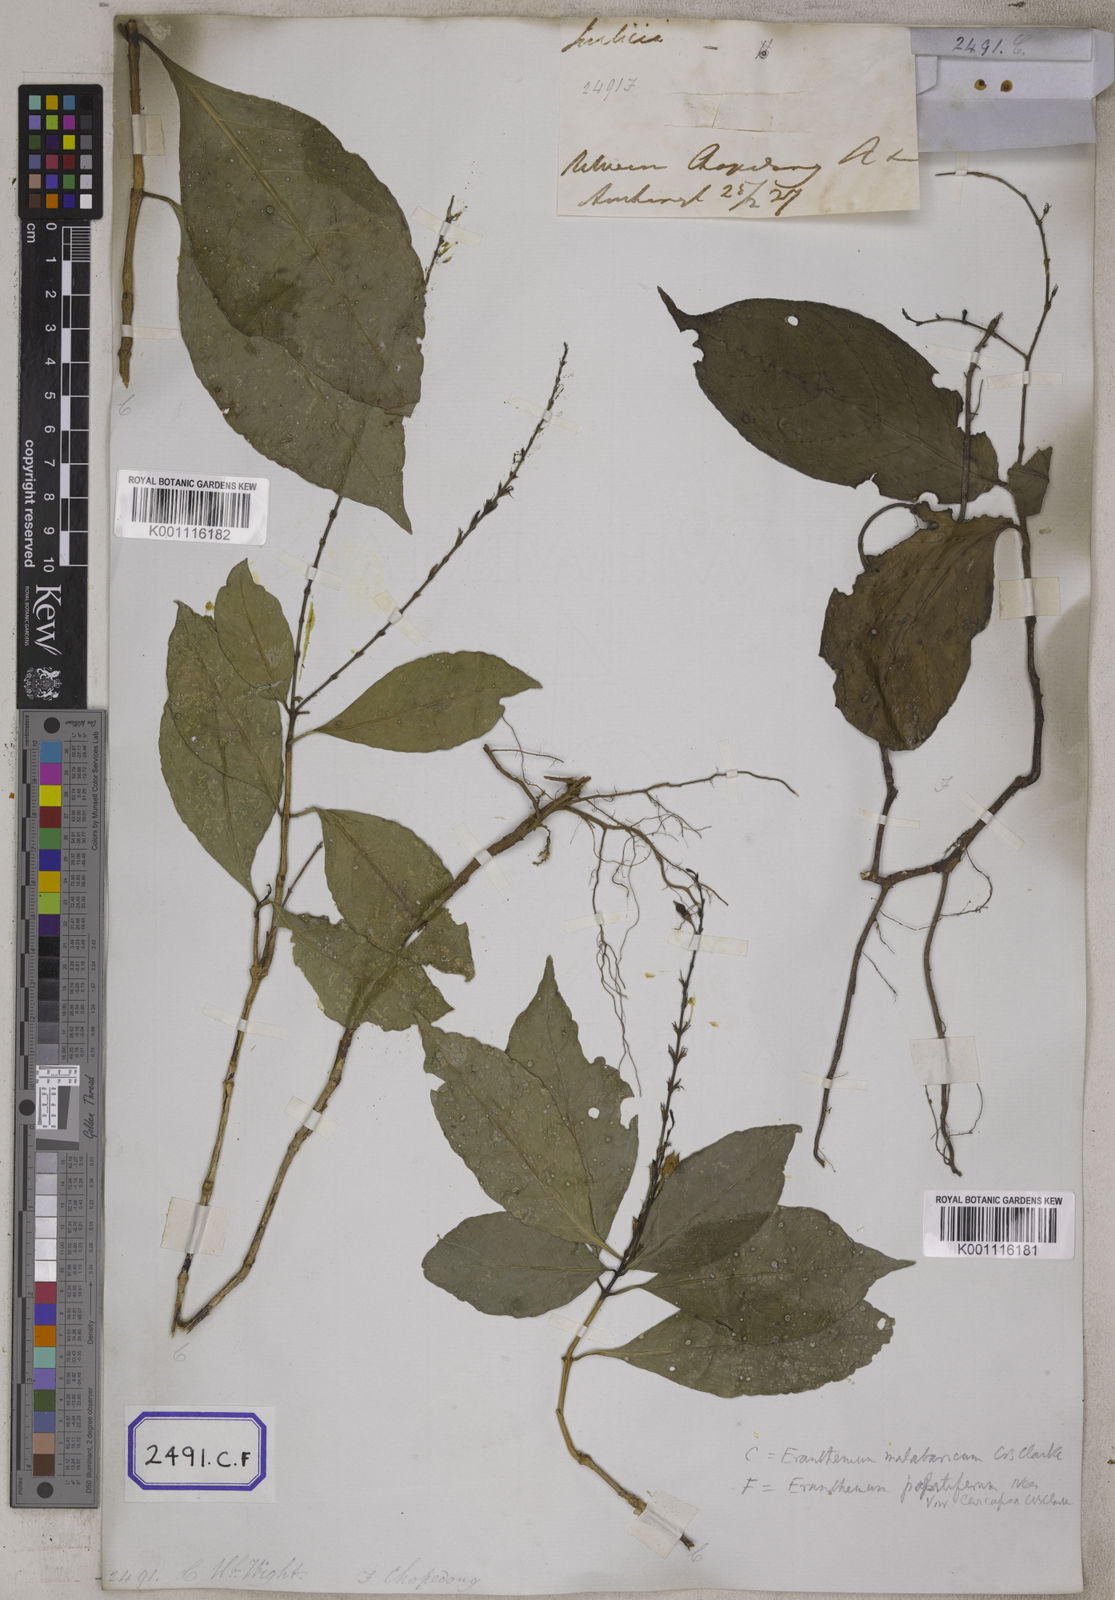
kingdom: Plantae
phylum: Tracheophyta
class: Magnoliopsida
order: Lamiales
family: Acanthaceae
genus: Eranthemum
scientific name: Eranthemum
